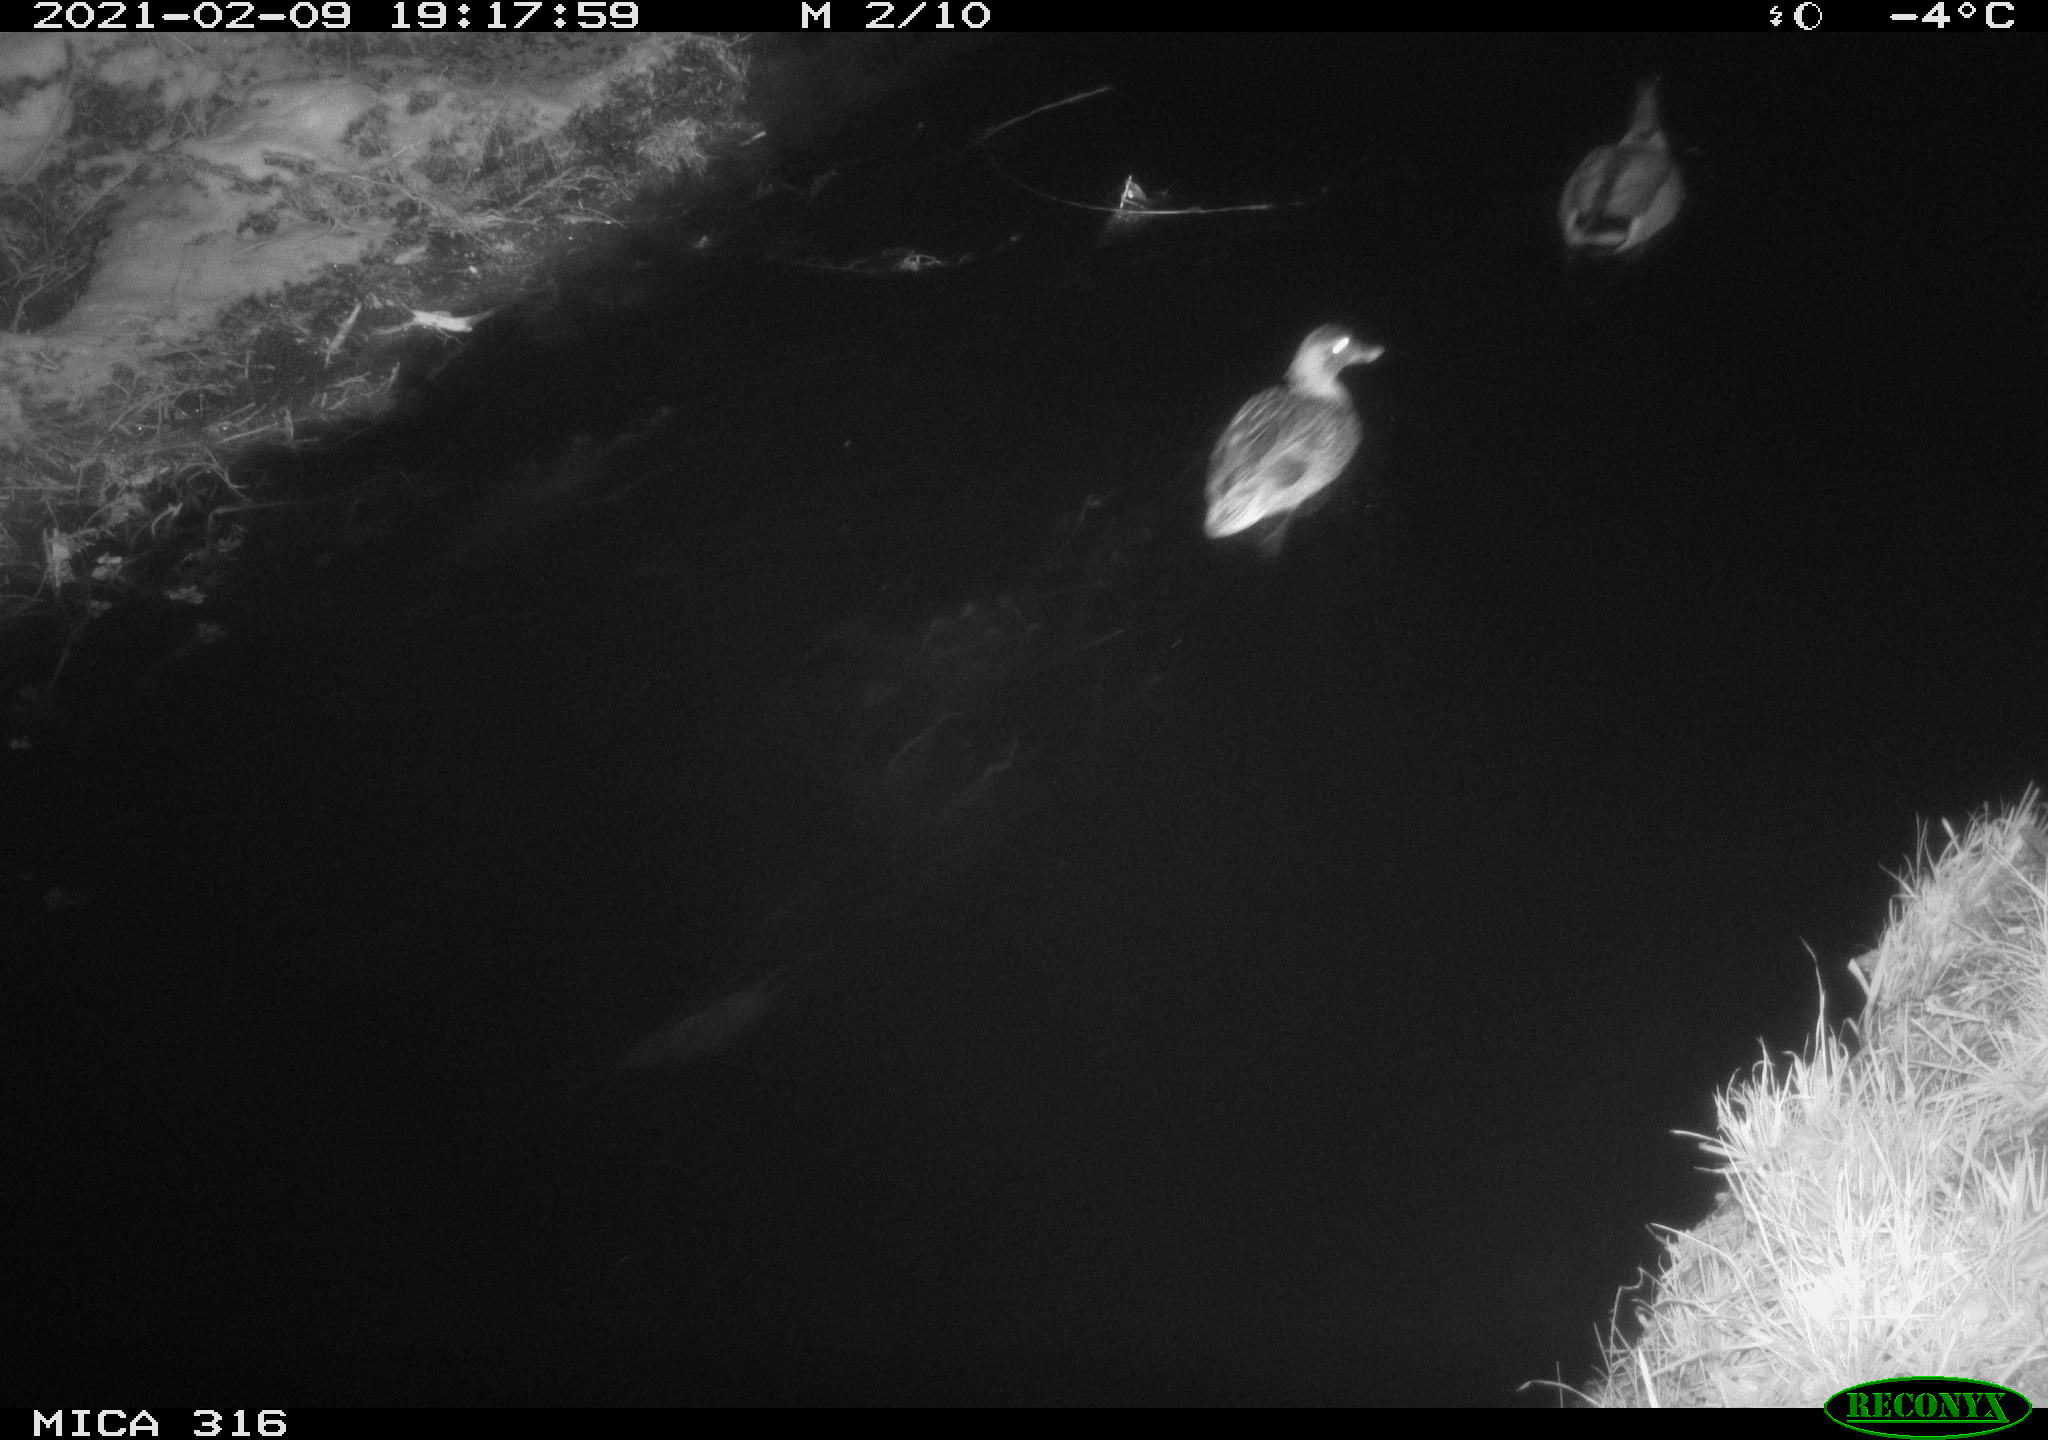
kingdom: Animalia
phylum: Chordata
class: Aves
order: Anseriformes
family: Anatidae
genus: Anas
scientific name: Anas platyrhynchos
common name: Mallard
